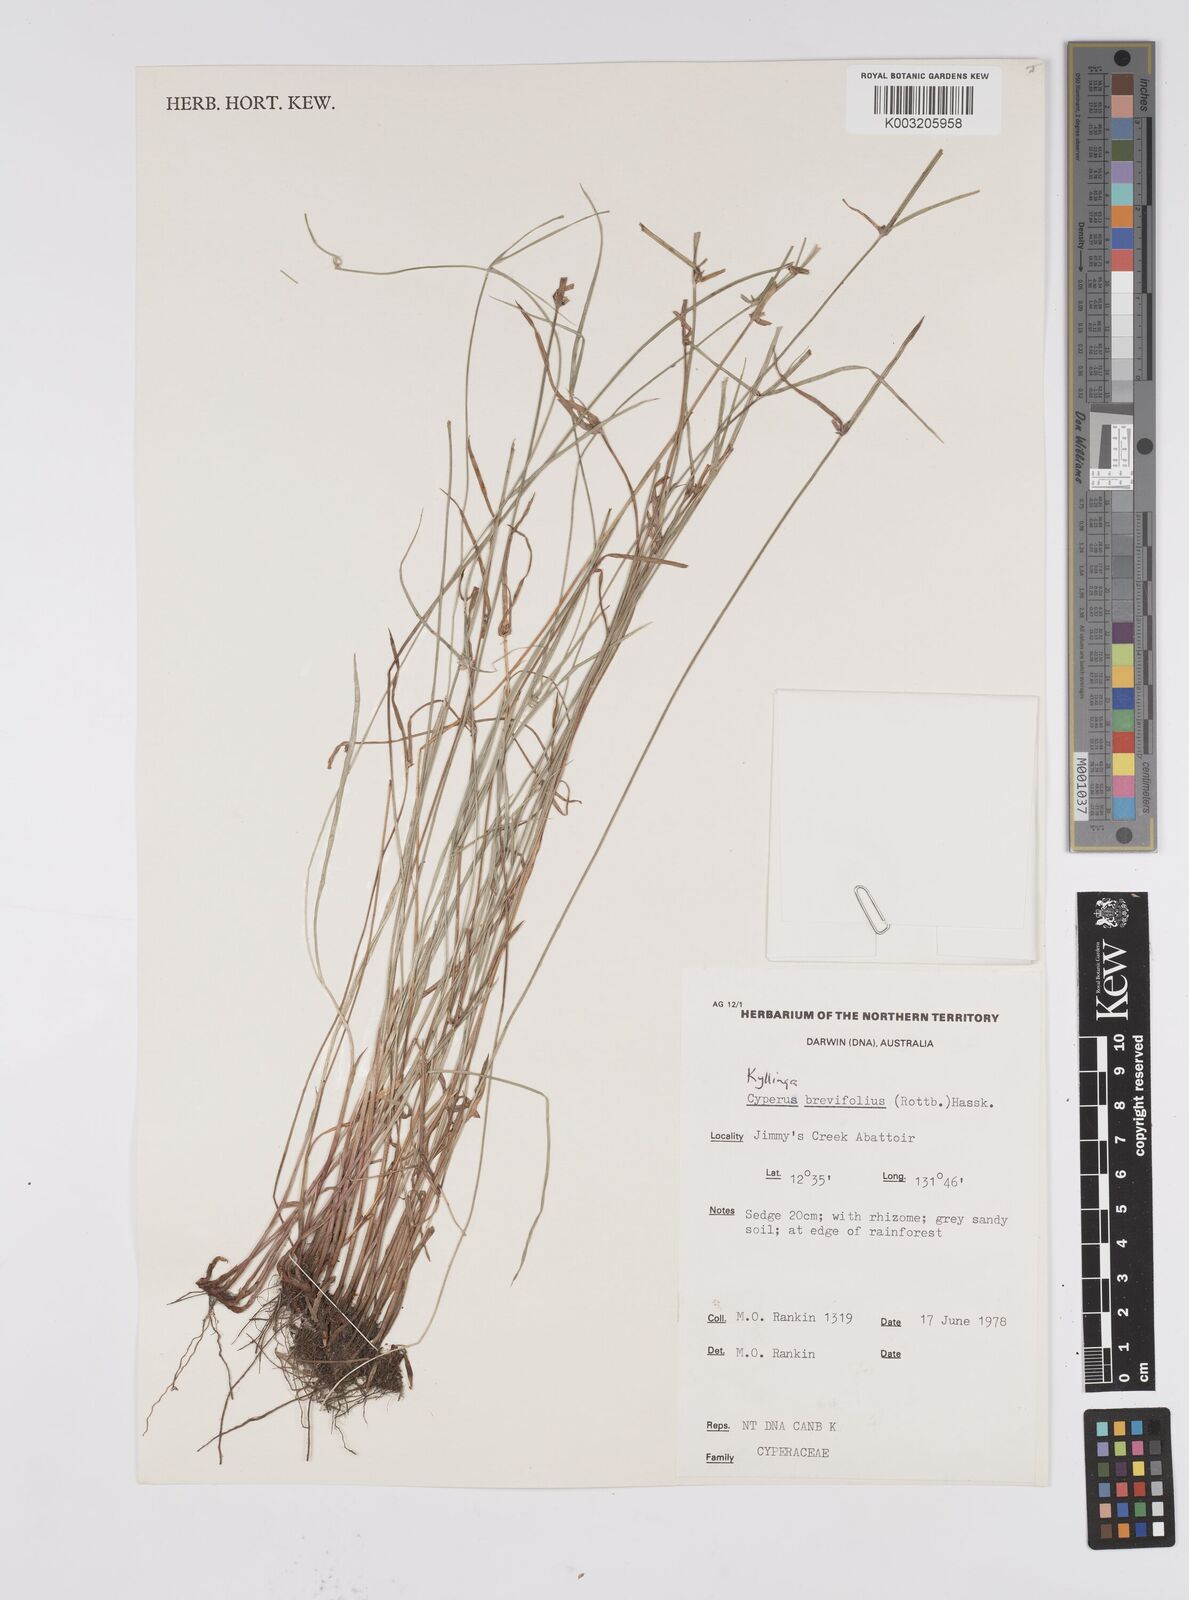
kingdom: Plantae
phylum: Tracheophyta
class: Liliopsida
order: Poales
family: Cyperaceae
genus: Cyperus
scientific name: Cyperus brevifolius
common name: Globe kyllinga
